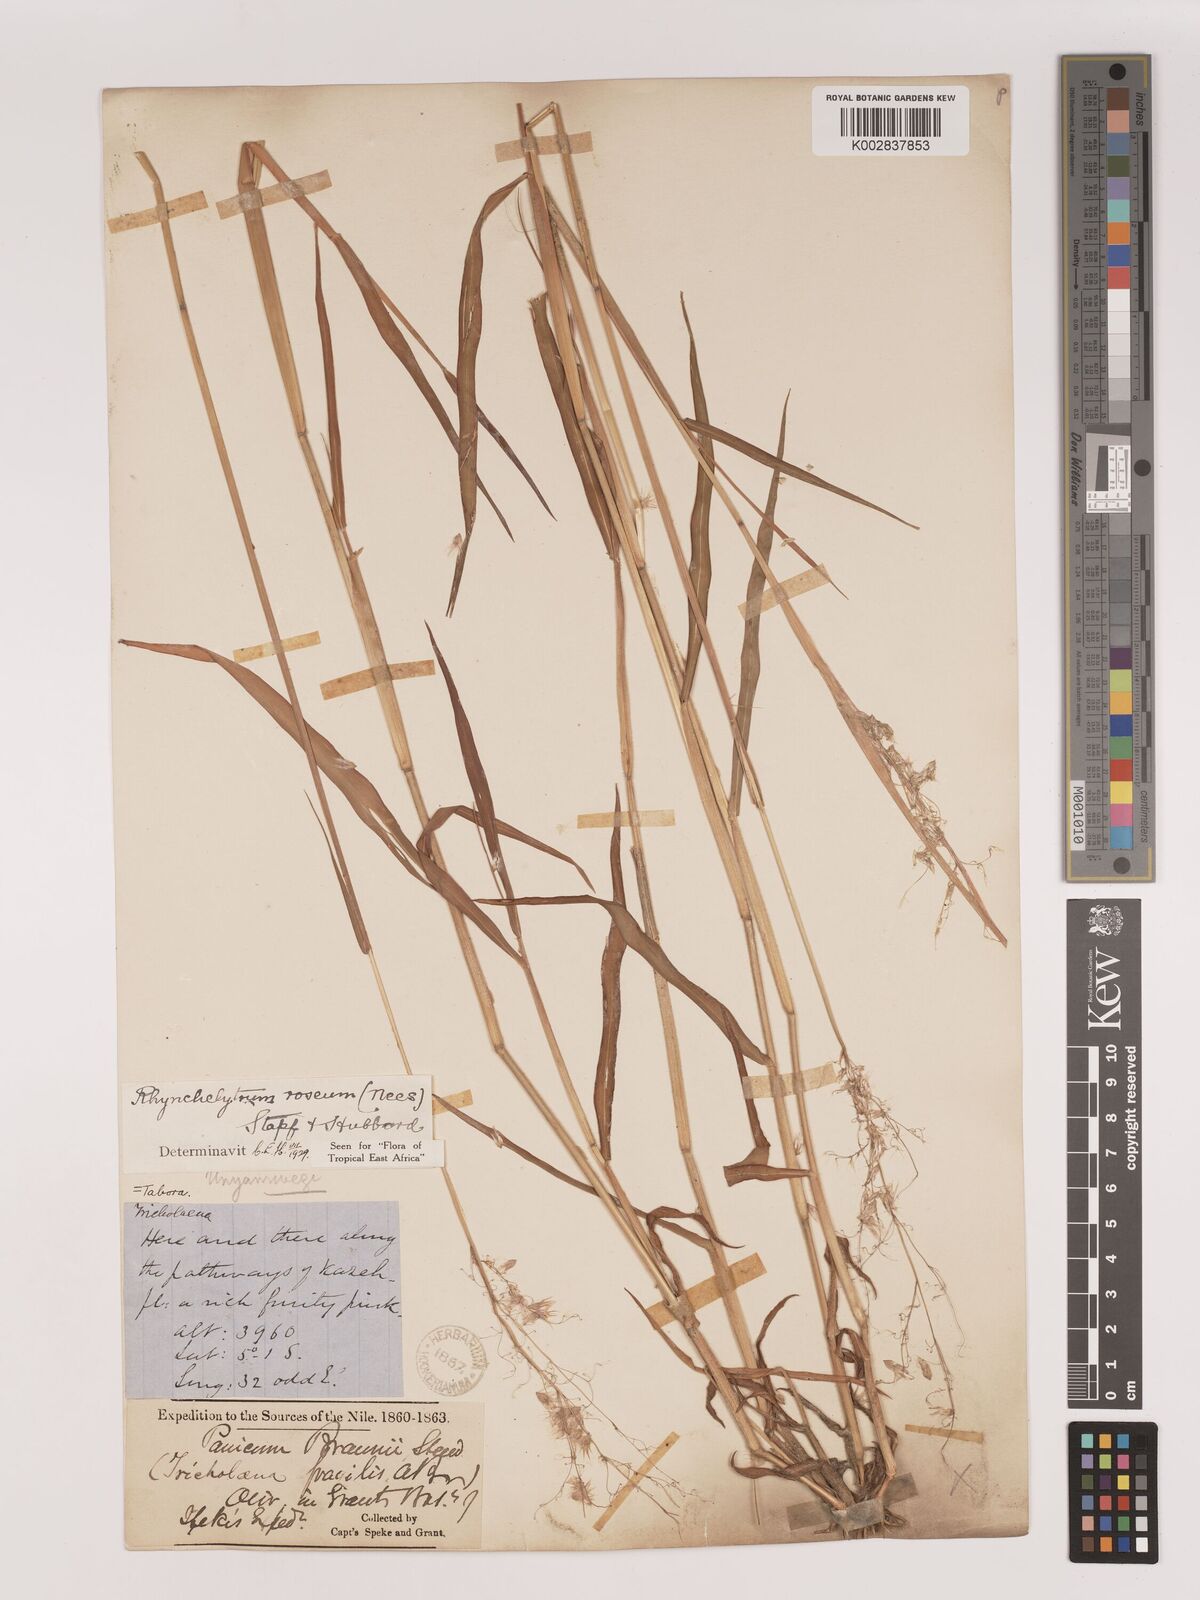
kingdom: Plantae
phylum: Tracheophyta
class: Liliopsida
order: Poales
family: Poaceae
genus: Melinis
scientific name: Melinis repens
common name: Rose natal grass
